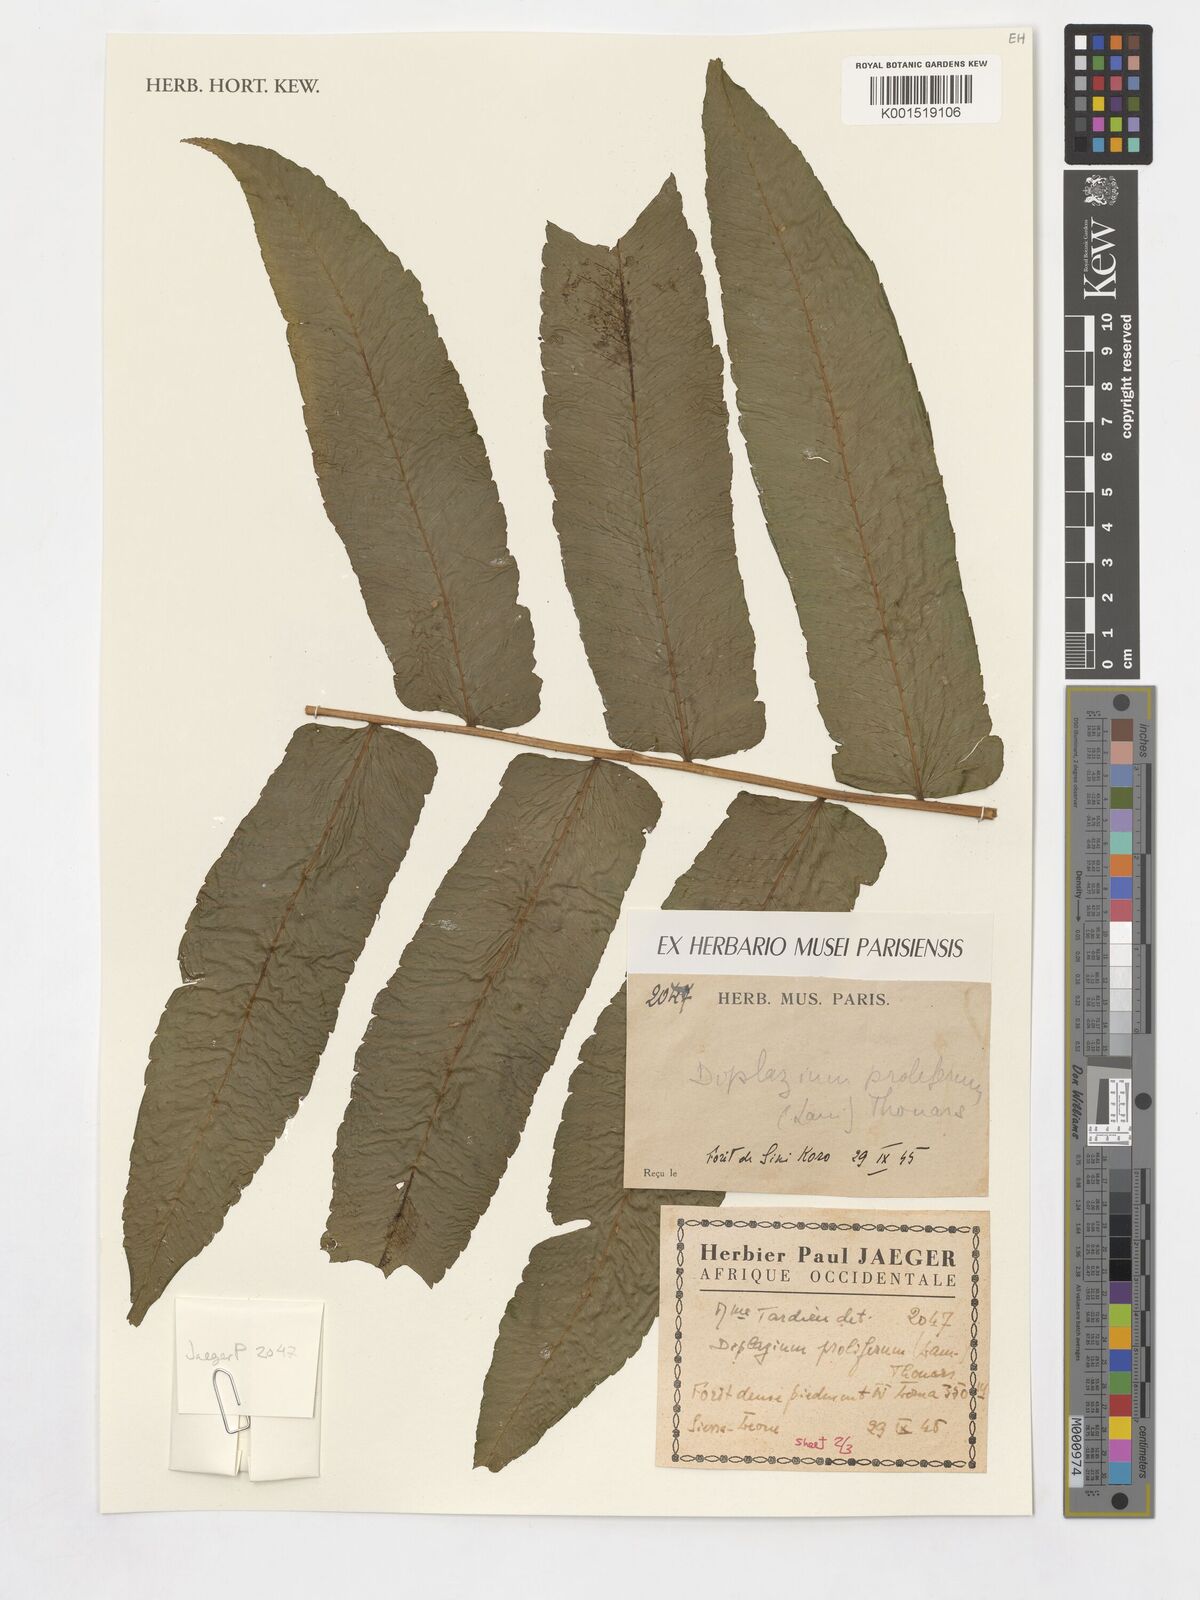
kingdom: Plantae
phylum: Tracheophyta
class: Polypodiopsida
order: Polypodiales
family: Athyriaceae
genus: Diplazium
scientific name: Diplazium proliferum
